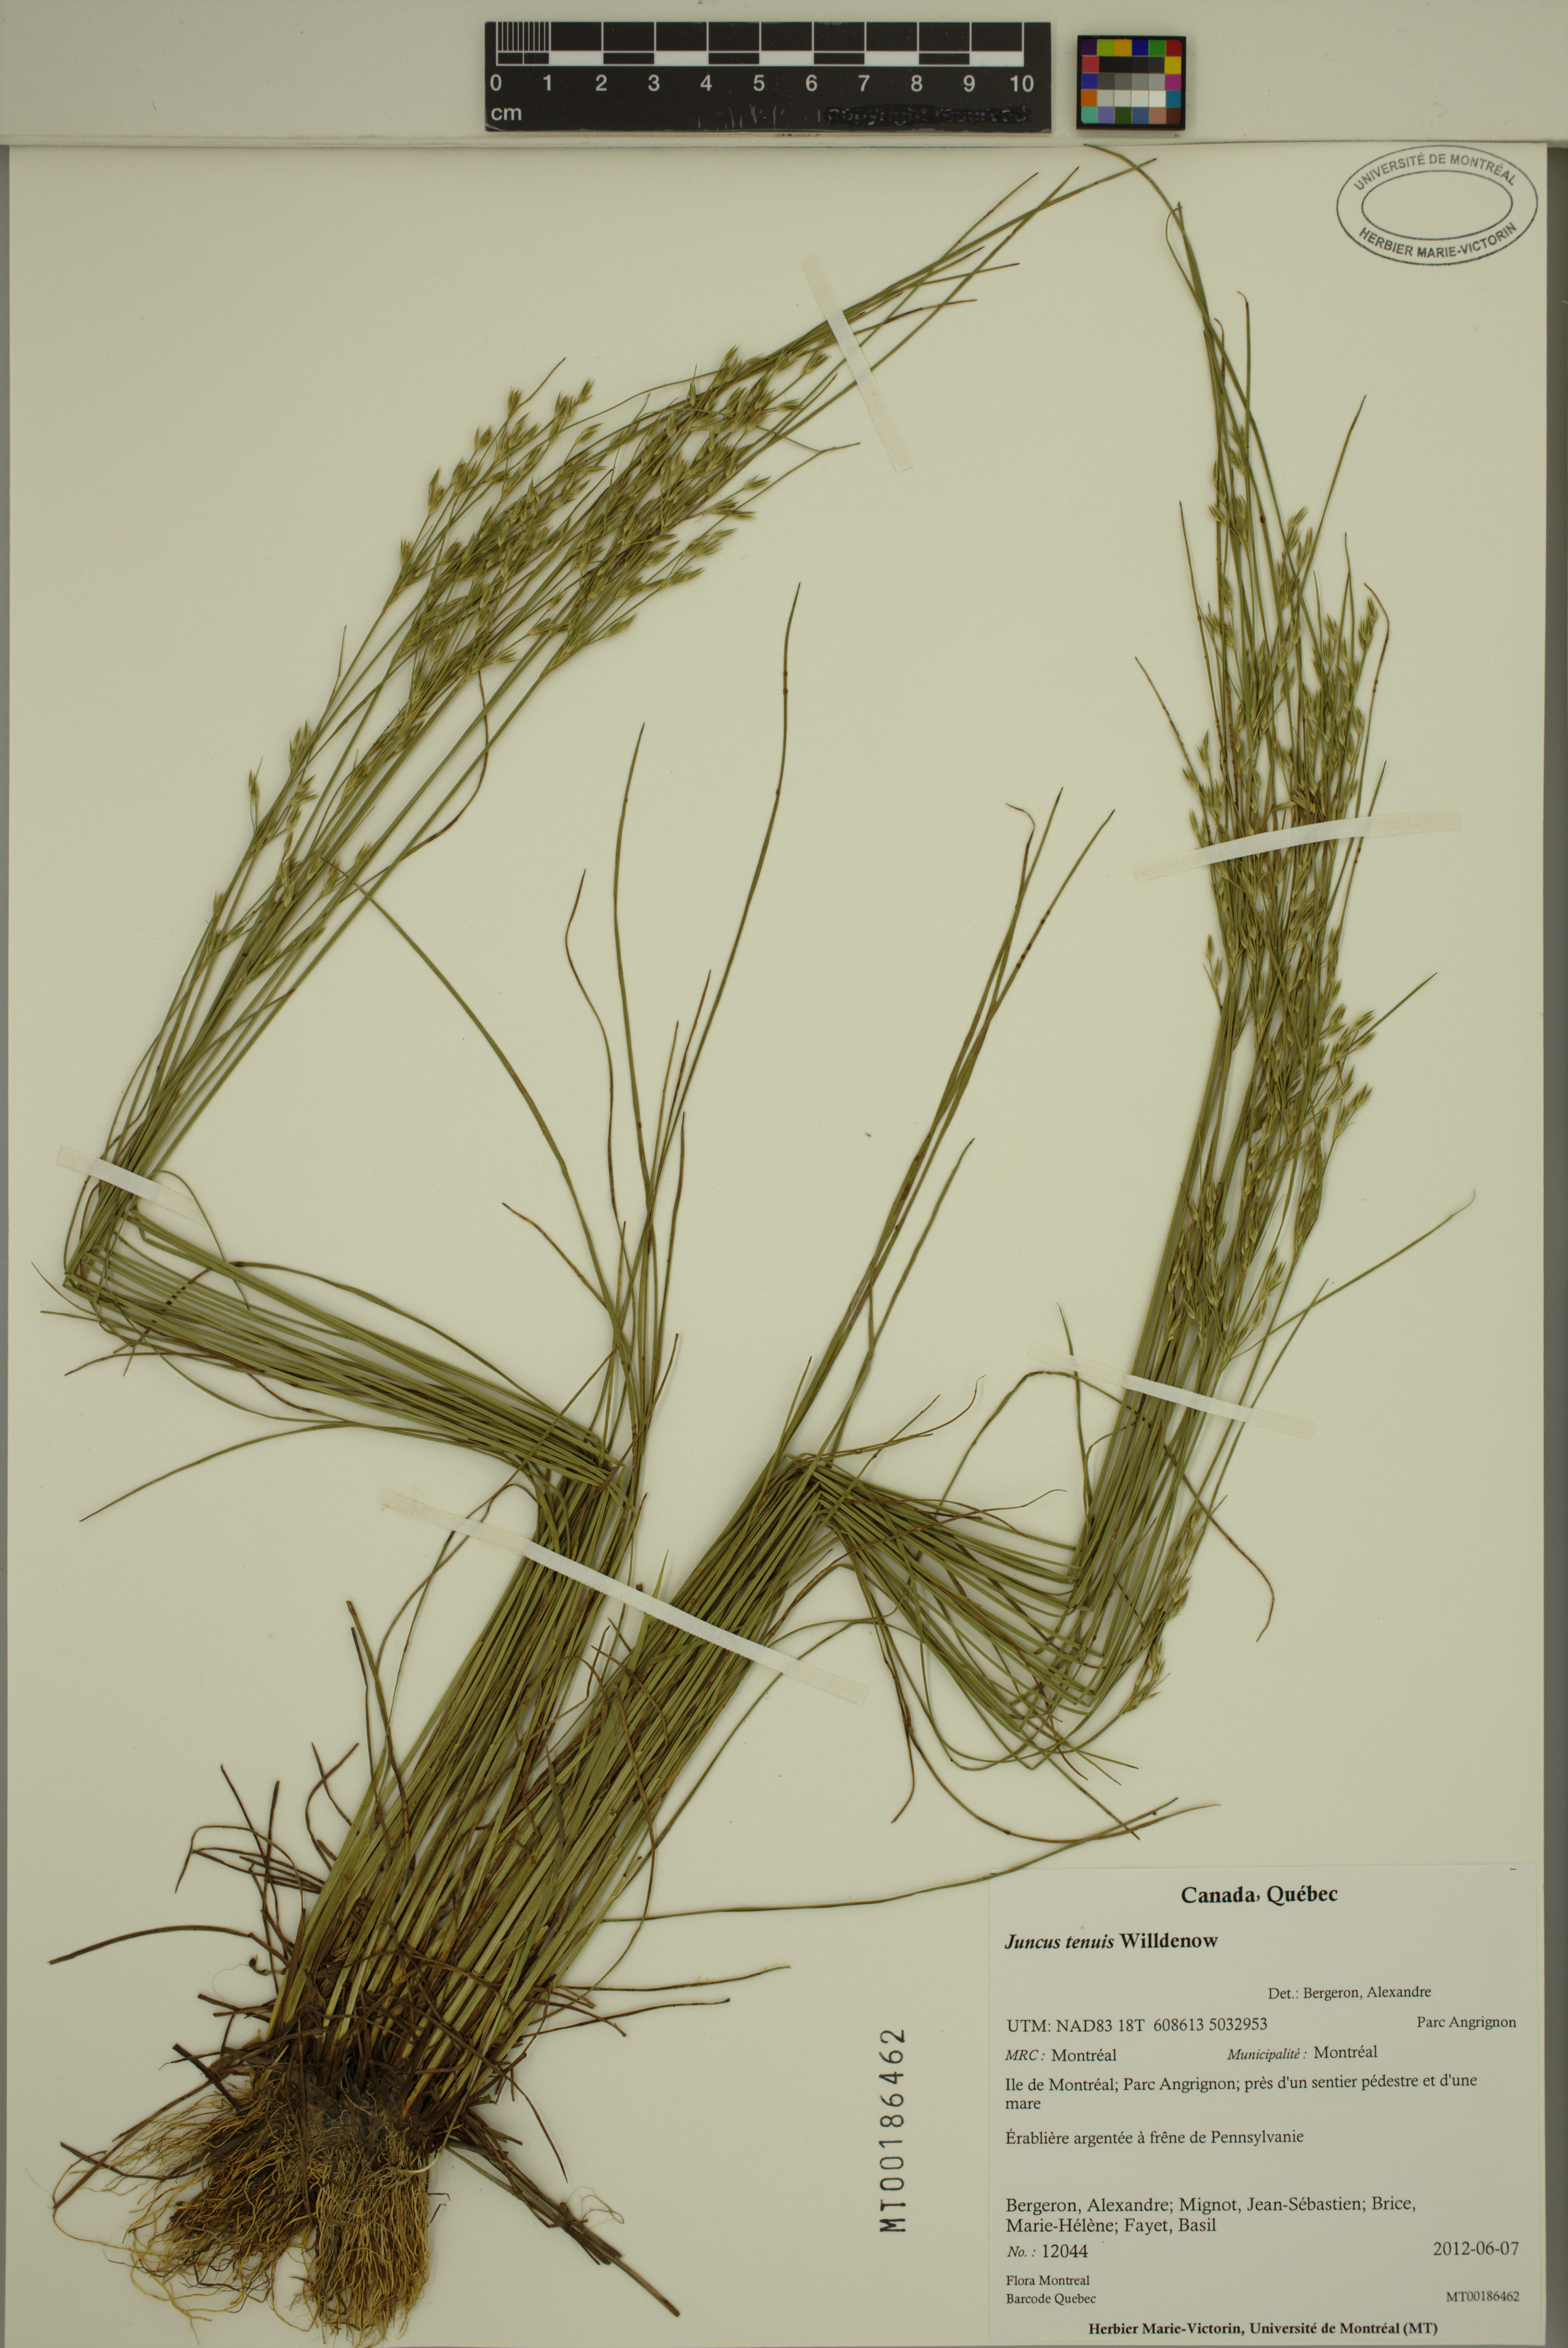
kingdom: Plantae
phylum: Tracheophyta
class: Liliopsida
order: Poales
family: Juncaceae
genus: Juncus
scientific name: Juncus tenuis
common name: Slender rush
